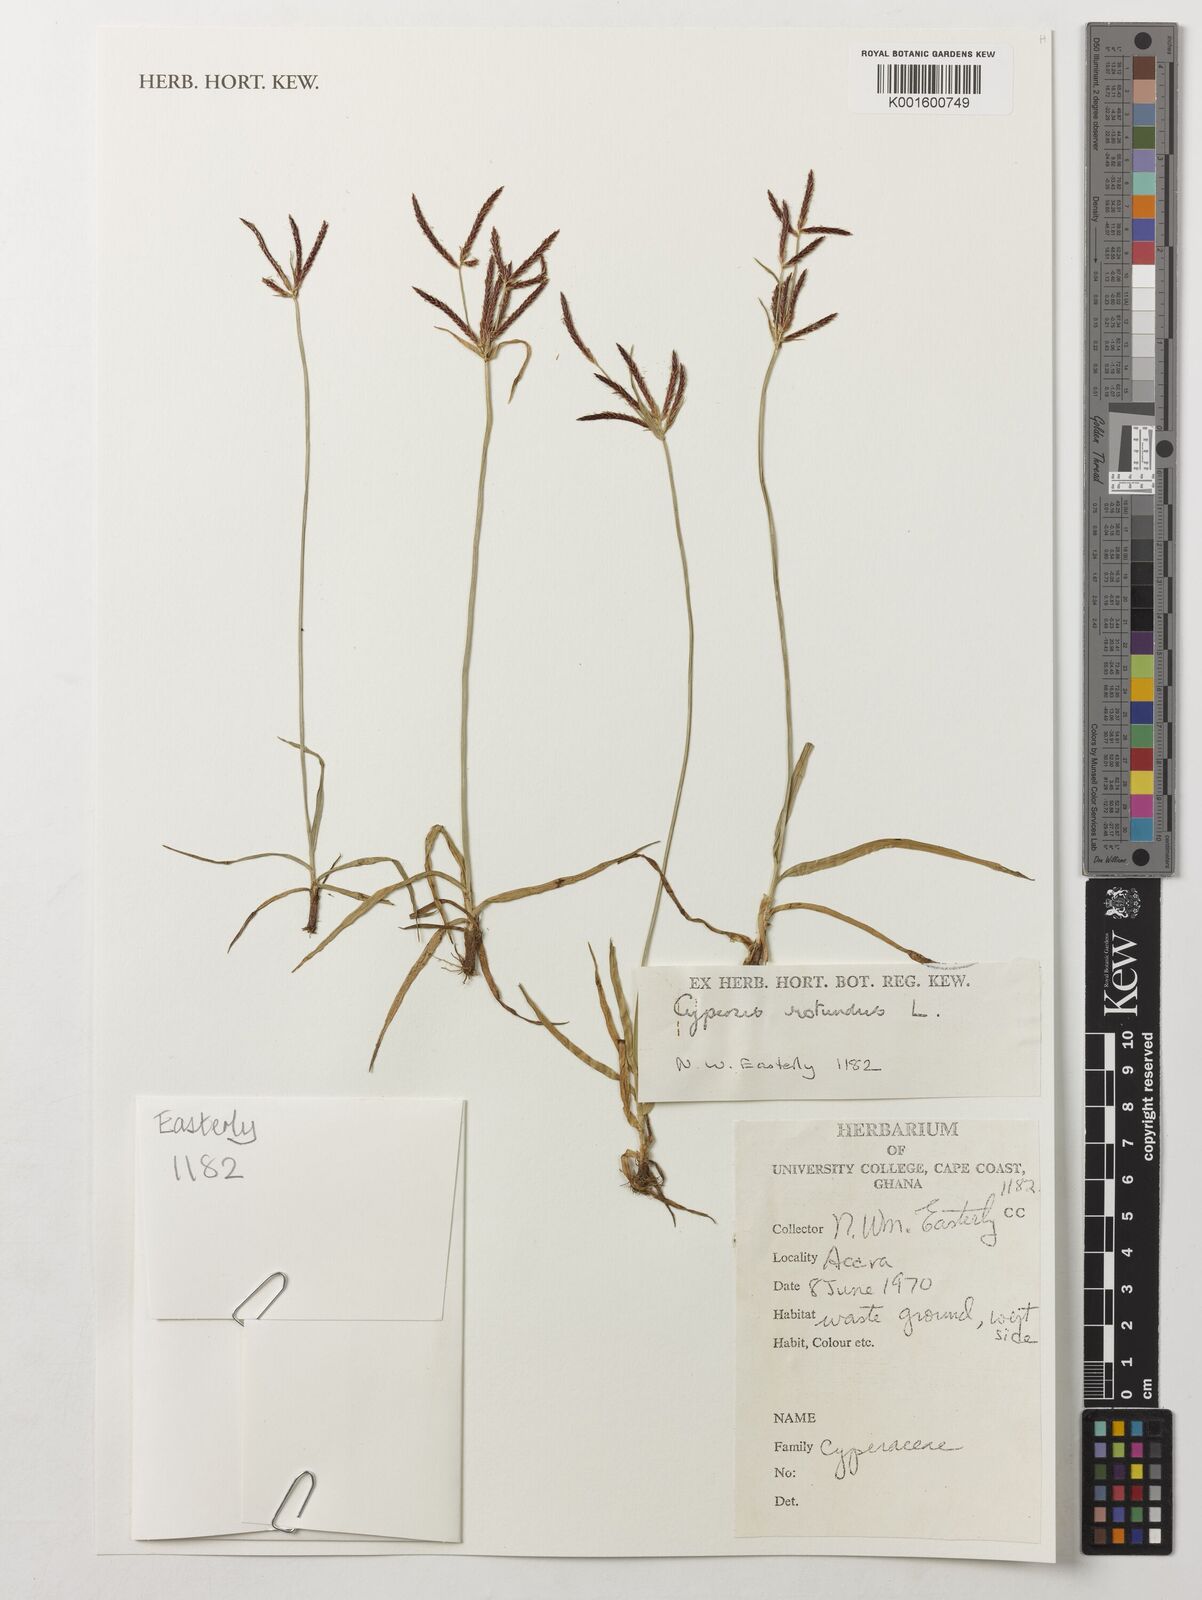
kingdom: Plantae
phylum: Tracheophyta
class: Liliopsida
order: Poales
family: Cyperaceae
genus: Cyperus
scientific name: Cyperus rotundus
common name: Nutgrass
